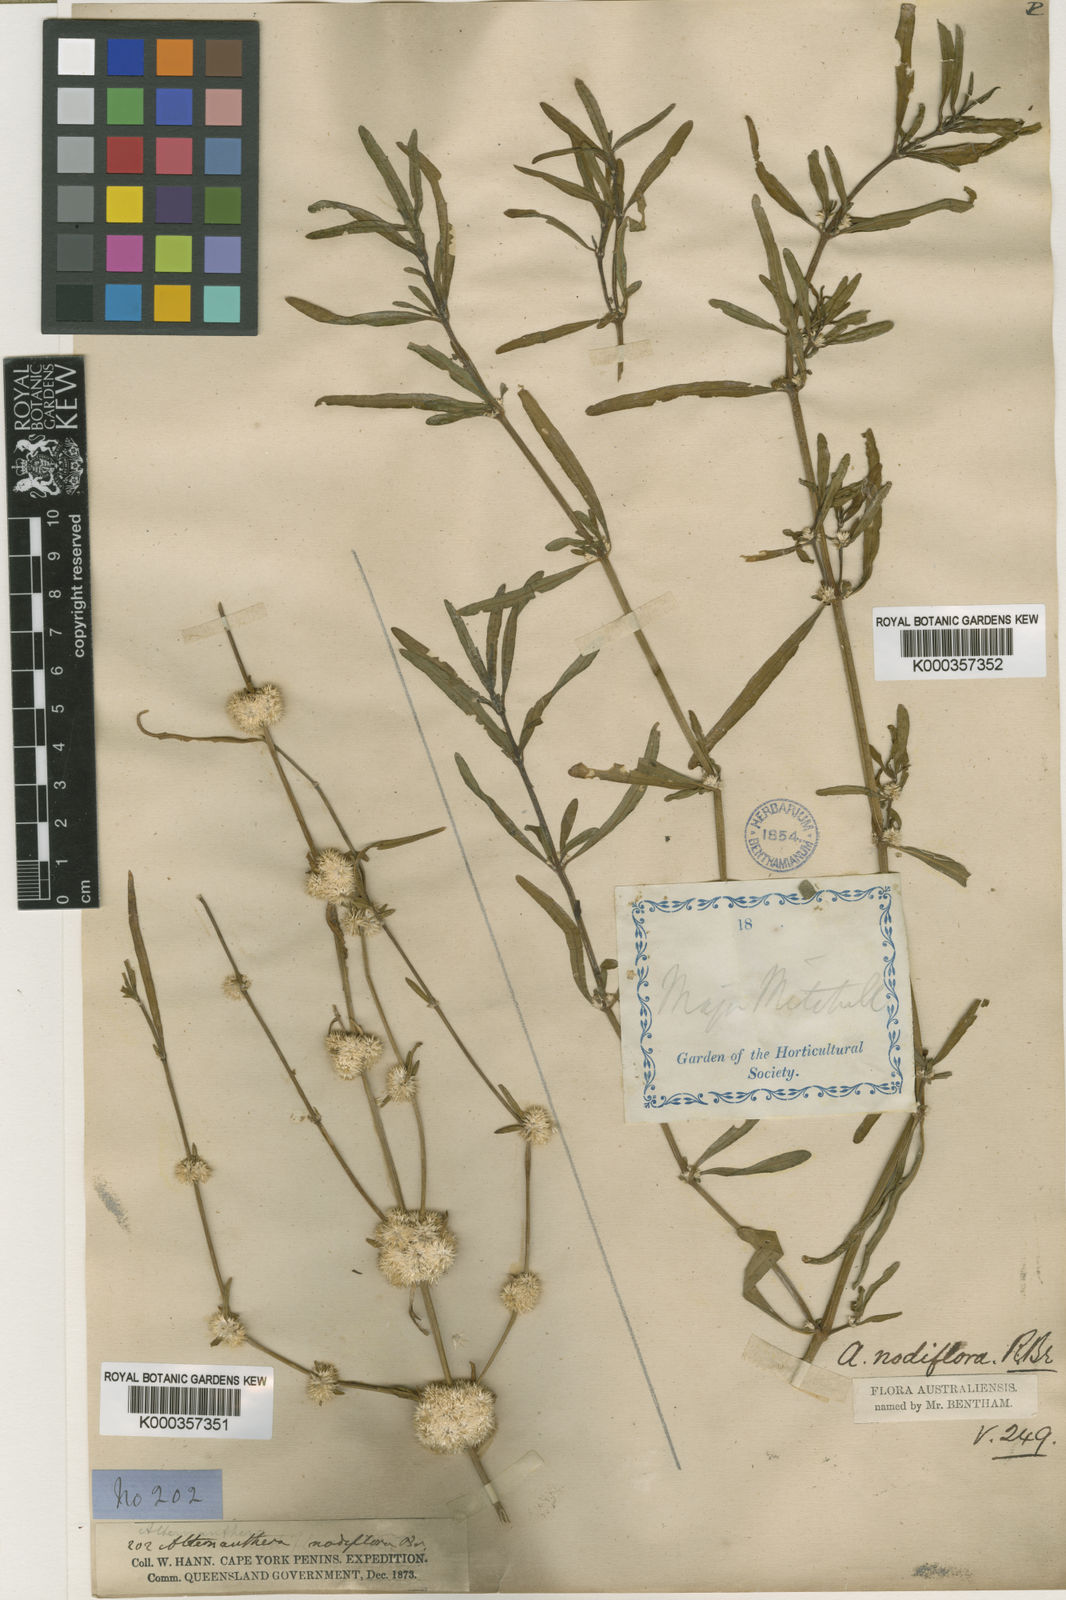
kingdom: Plantae
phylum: Tracheophyta
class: Magnoliopsida
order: Caryophyllales
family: Amaranthaceae
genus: Alternanthera
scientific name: Alternanthera sessilis
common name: Sessile joyweed
